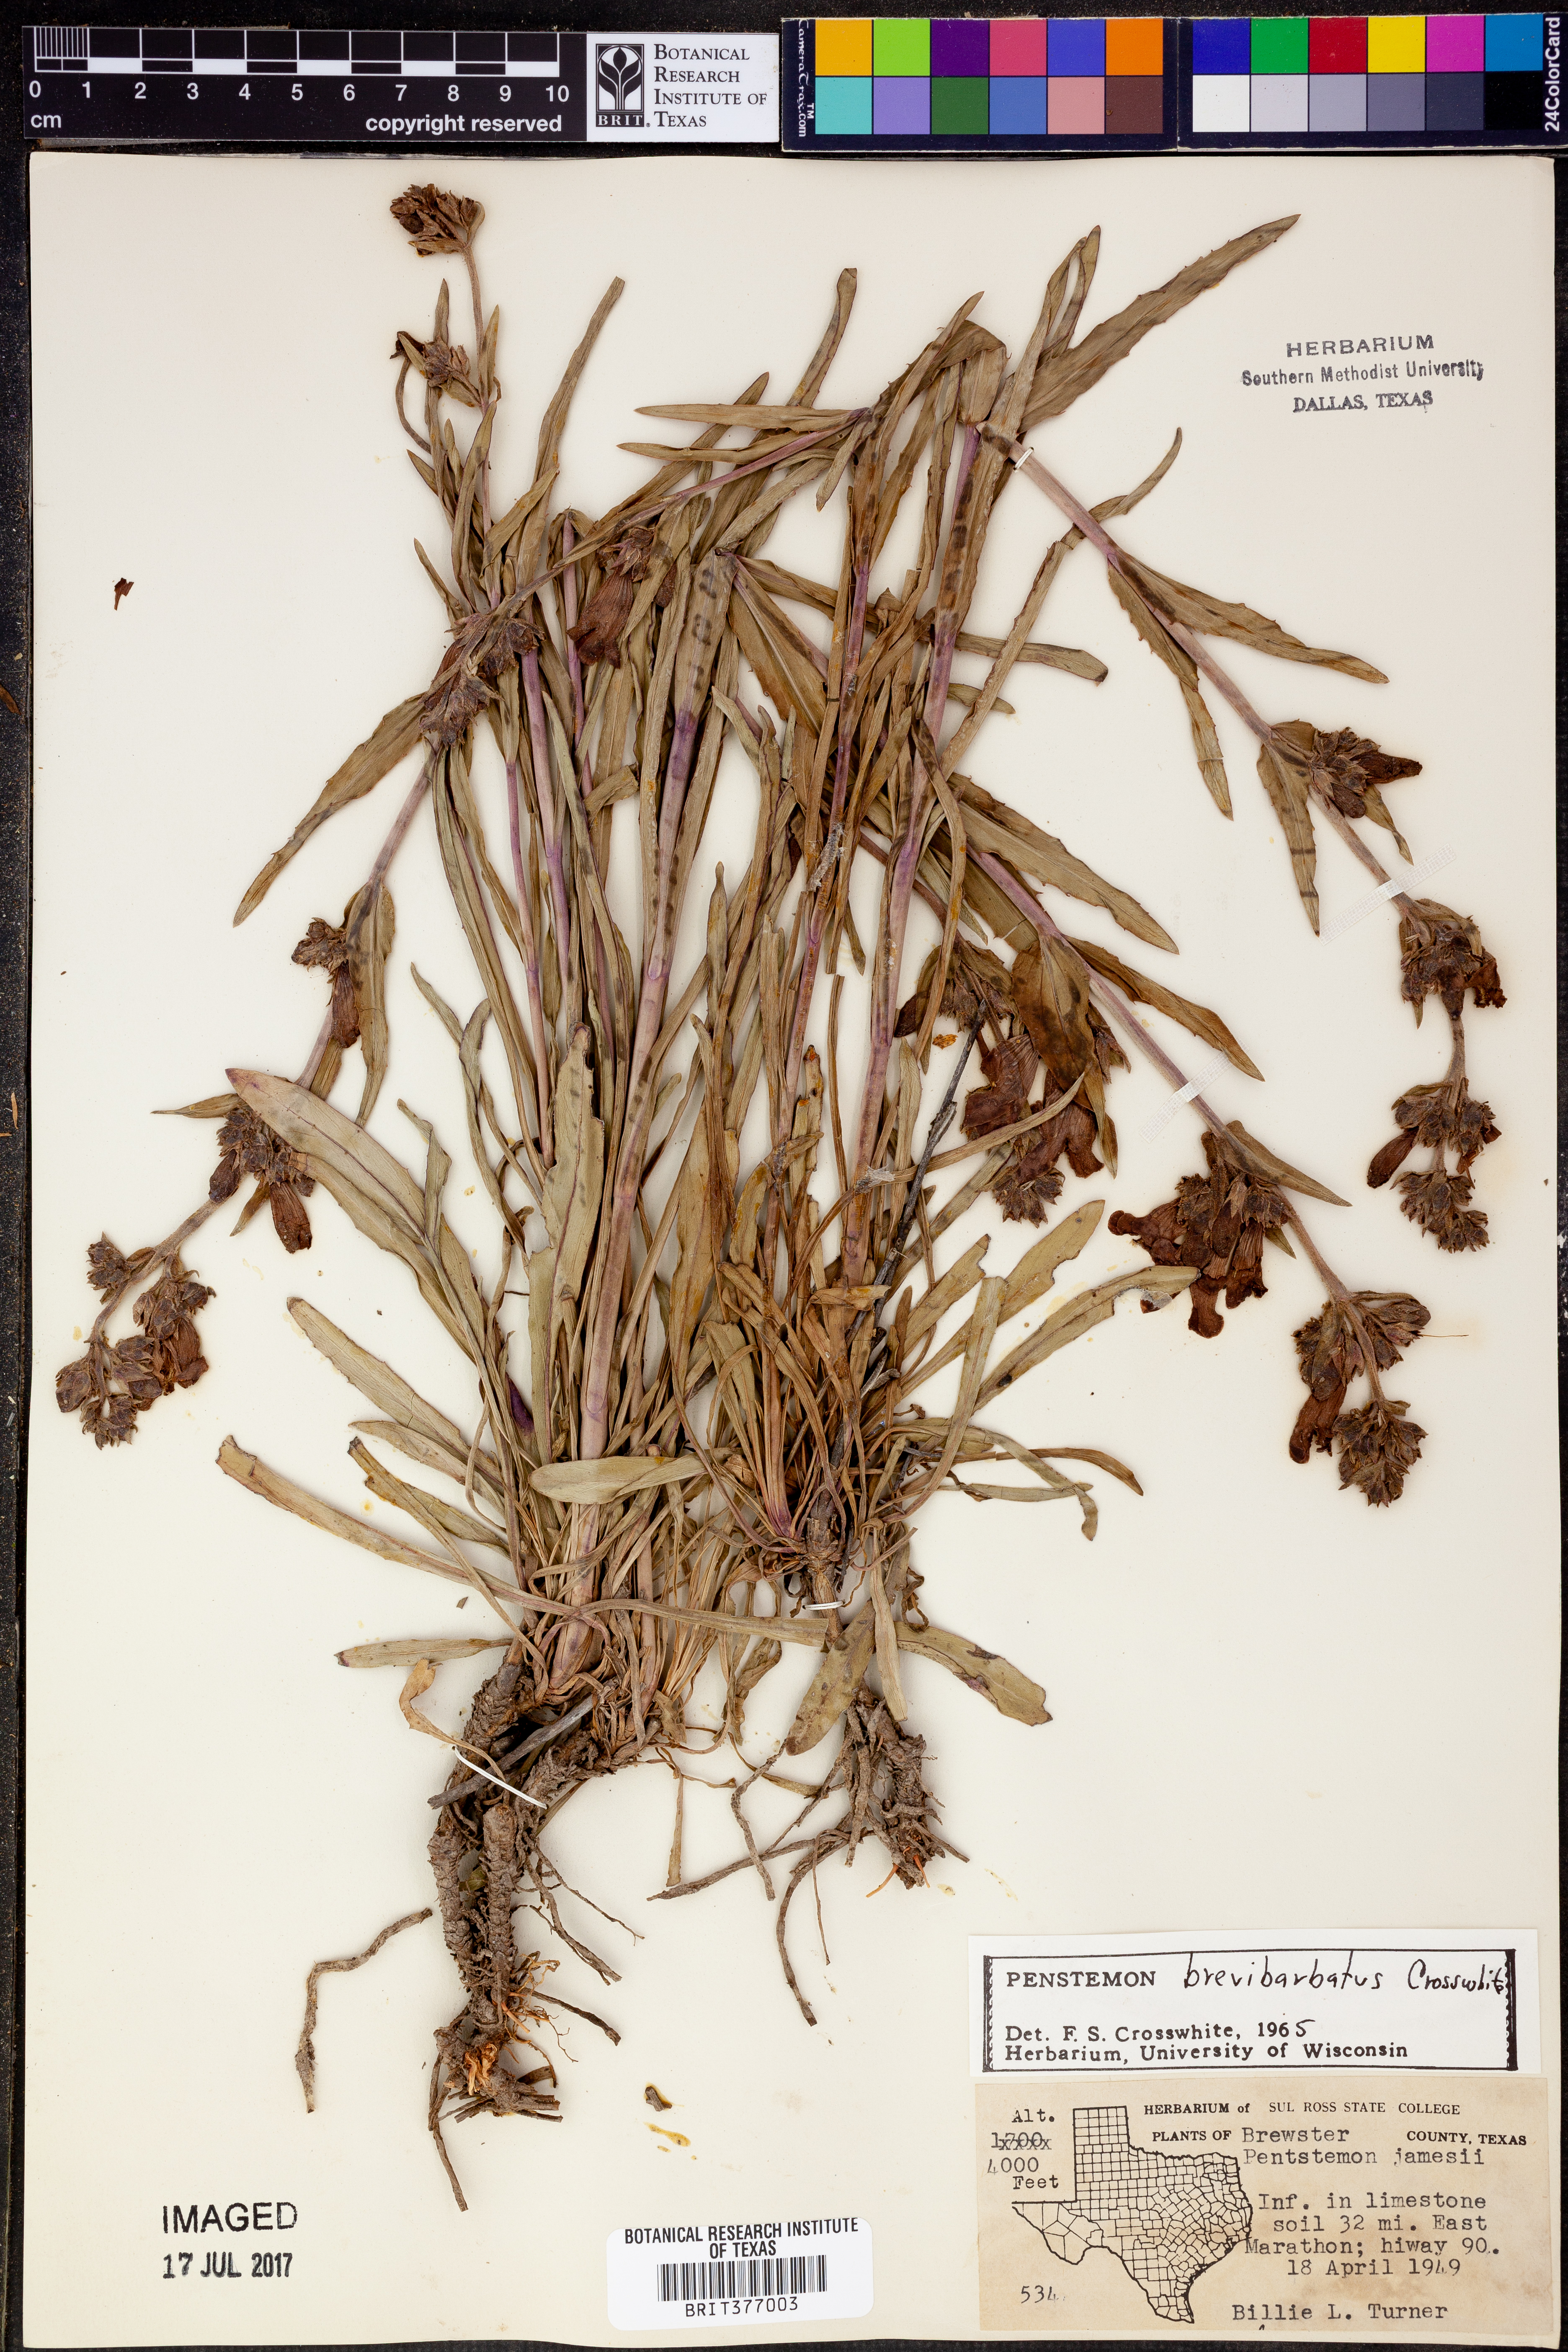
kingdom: Plantae
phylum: Tracheophyta
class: Magnoliopsida
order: Lamiales
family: Plantaginaceae
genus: Penstemon
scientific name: Penstemon brevibarbatus
